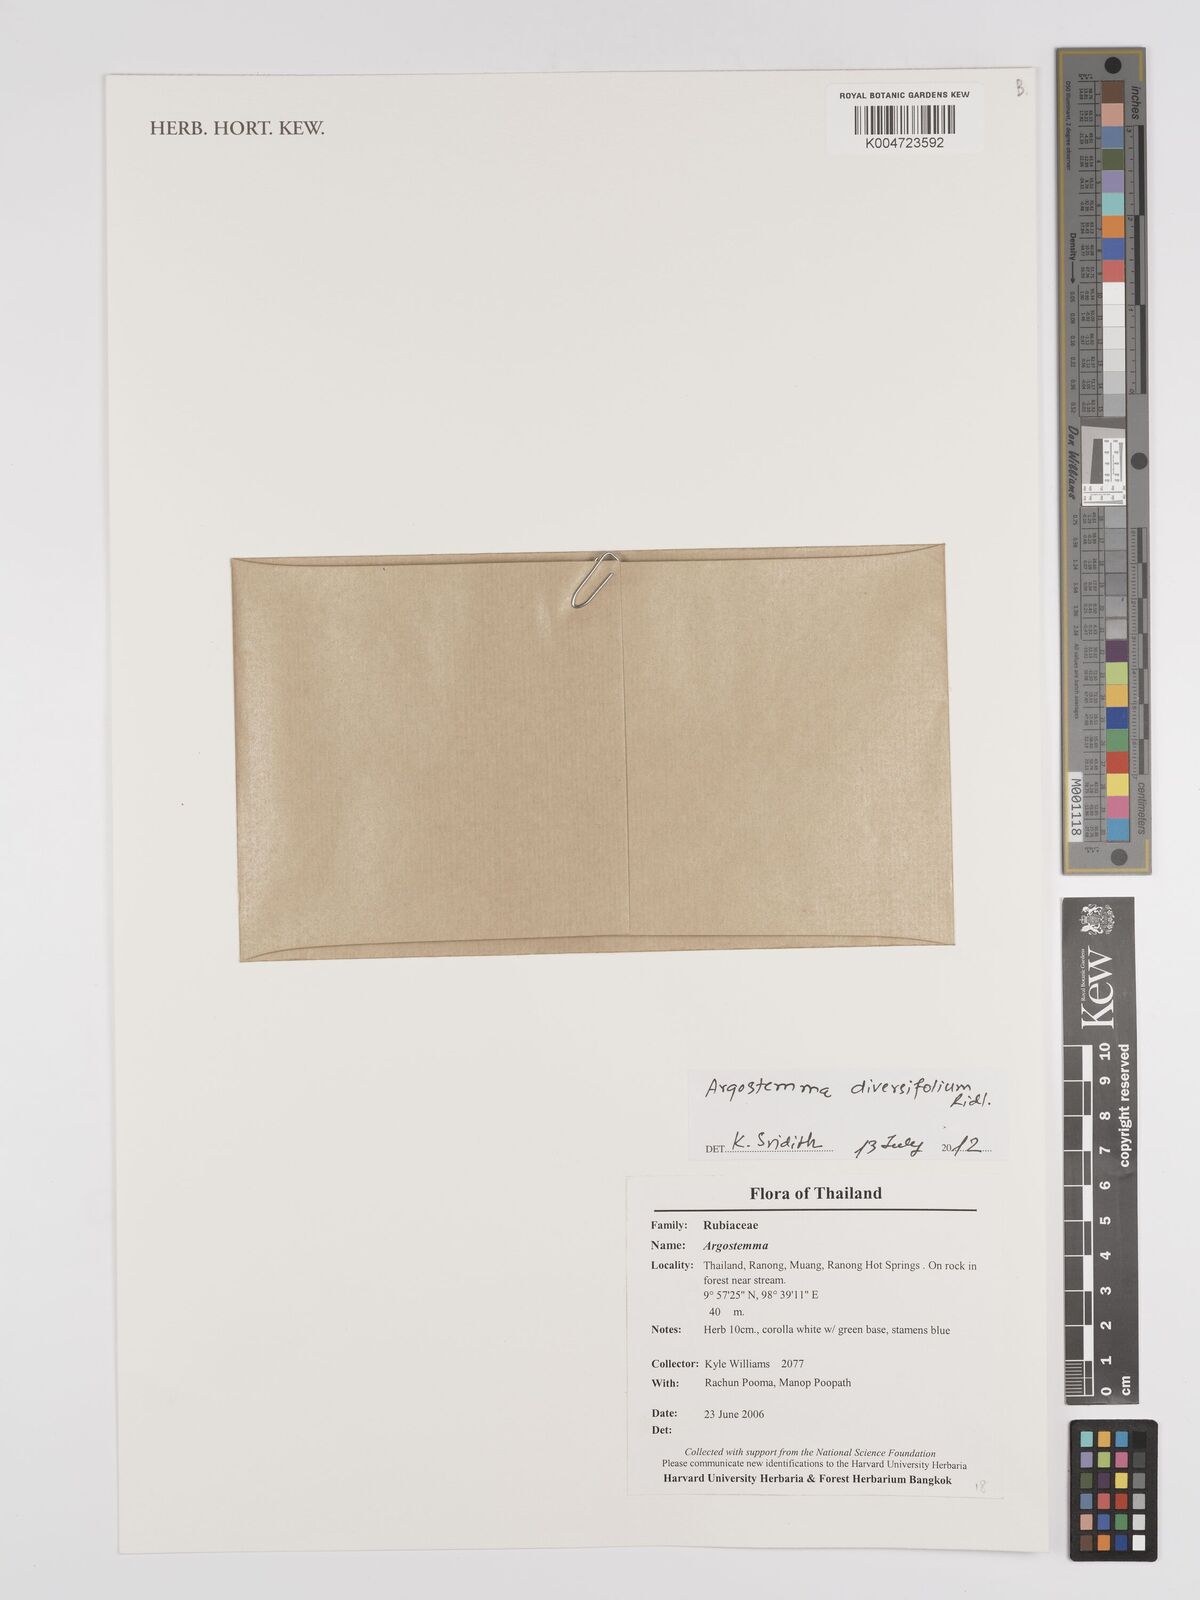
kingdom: Plantae
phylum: Tracheophyta
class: Magnoliopsida
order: Gentianales
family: Rubiaceae
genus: Argostemma
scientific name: Argostemma diversifolium
